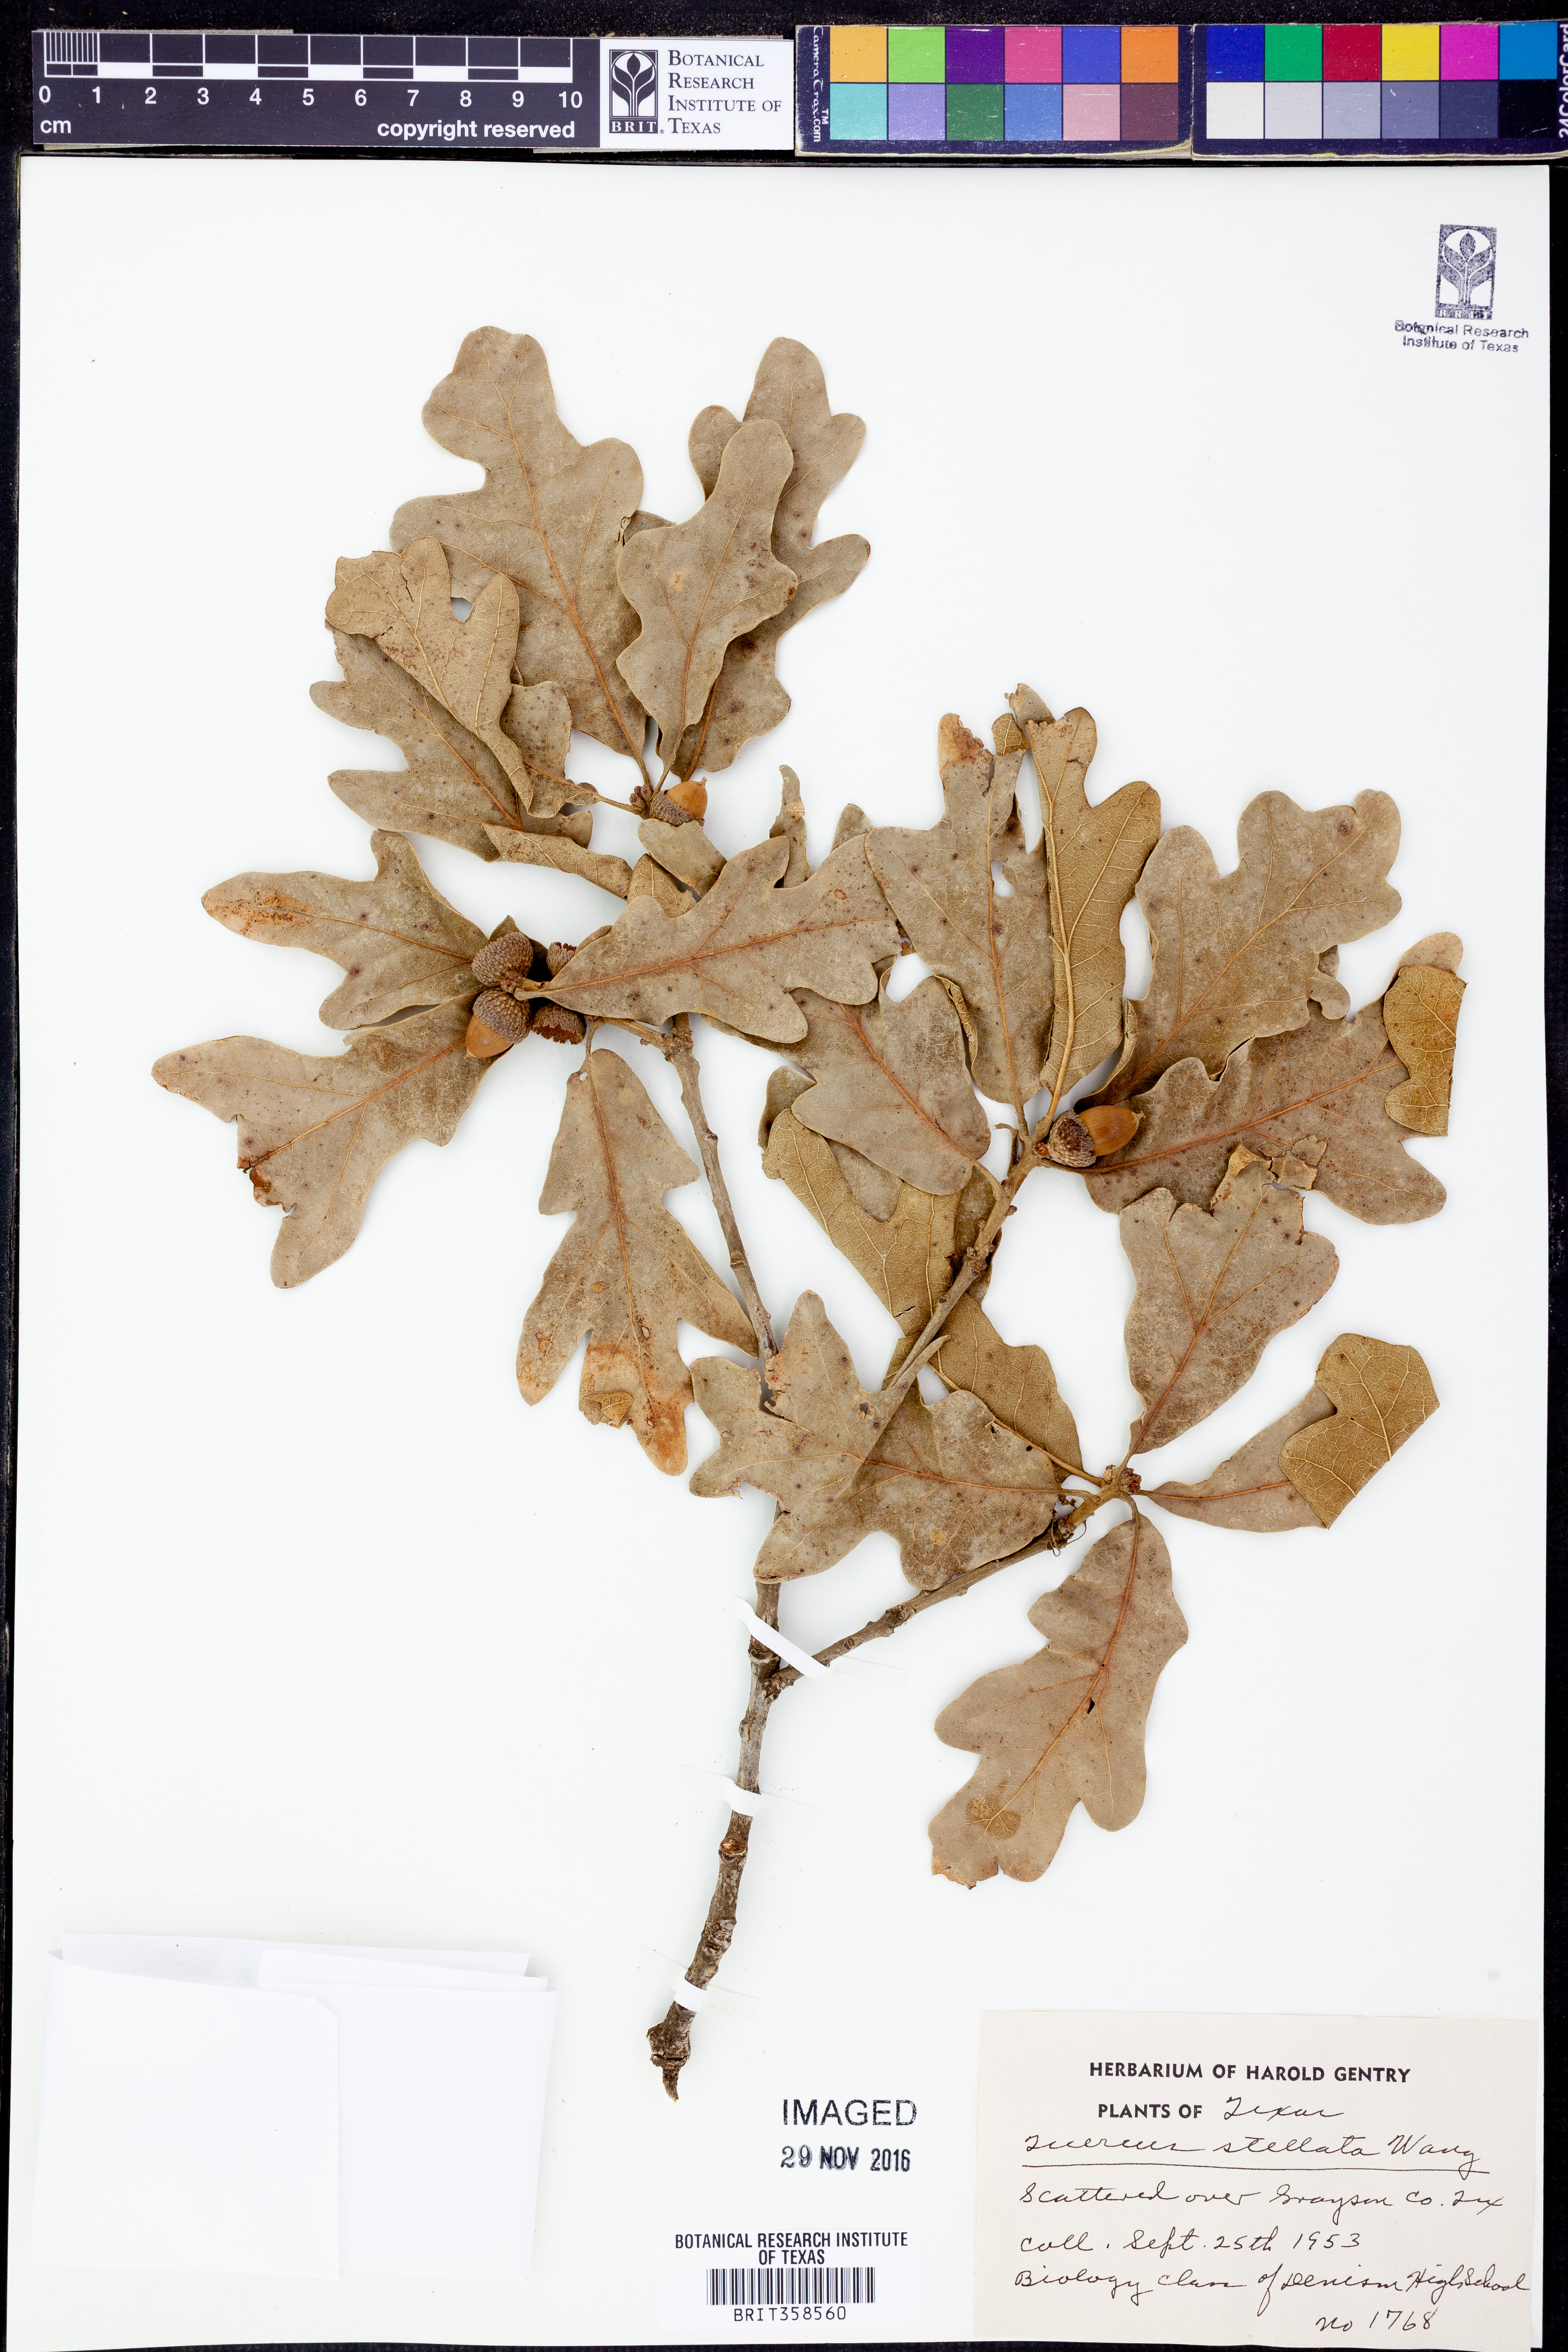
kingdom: Plantae
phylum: Tracheophyta
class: Magnoliopsida
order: Fagales
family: Fagaceae
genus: Quercus
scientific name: Quercus stellata
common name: Post oak
